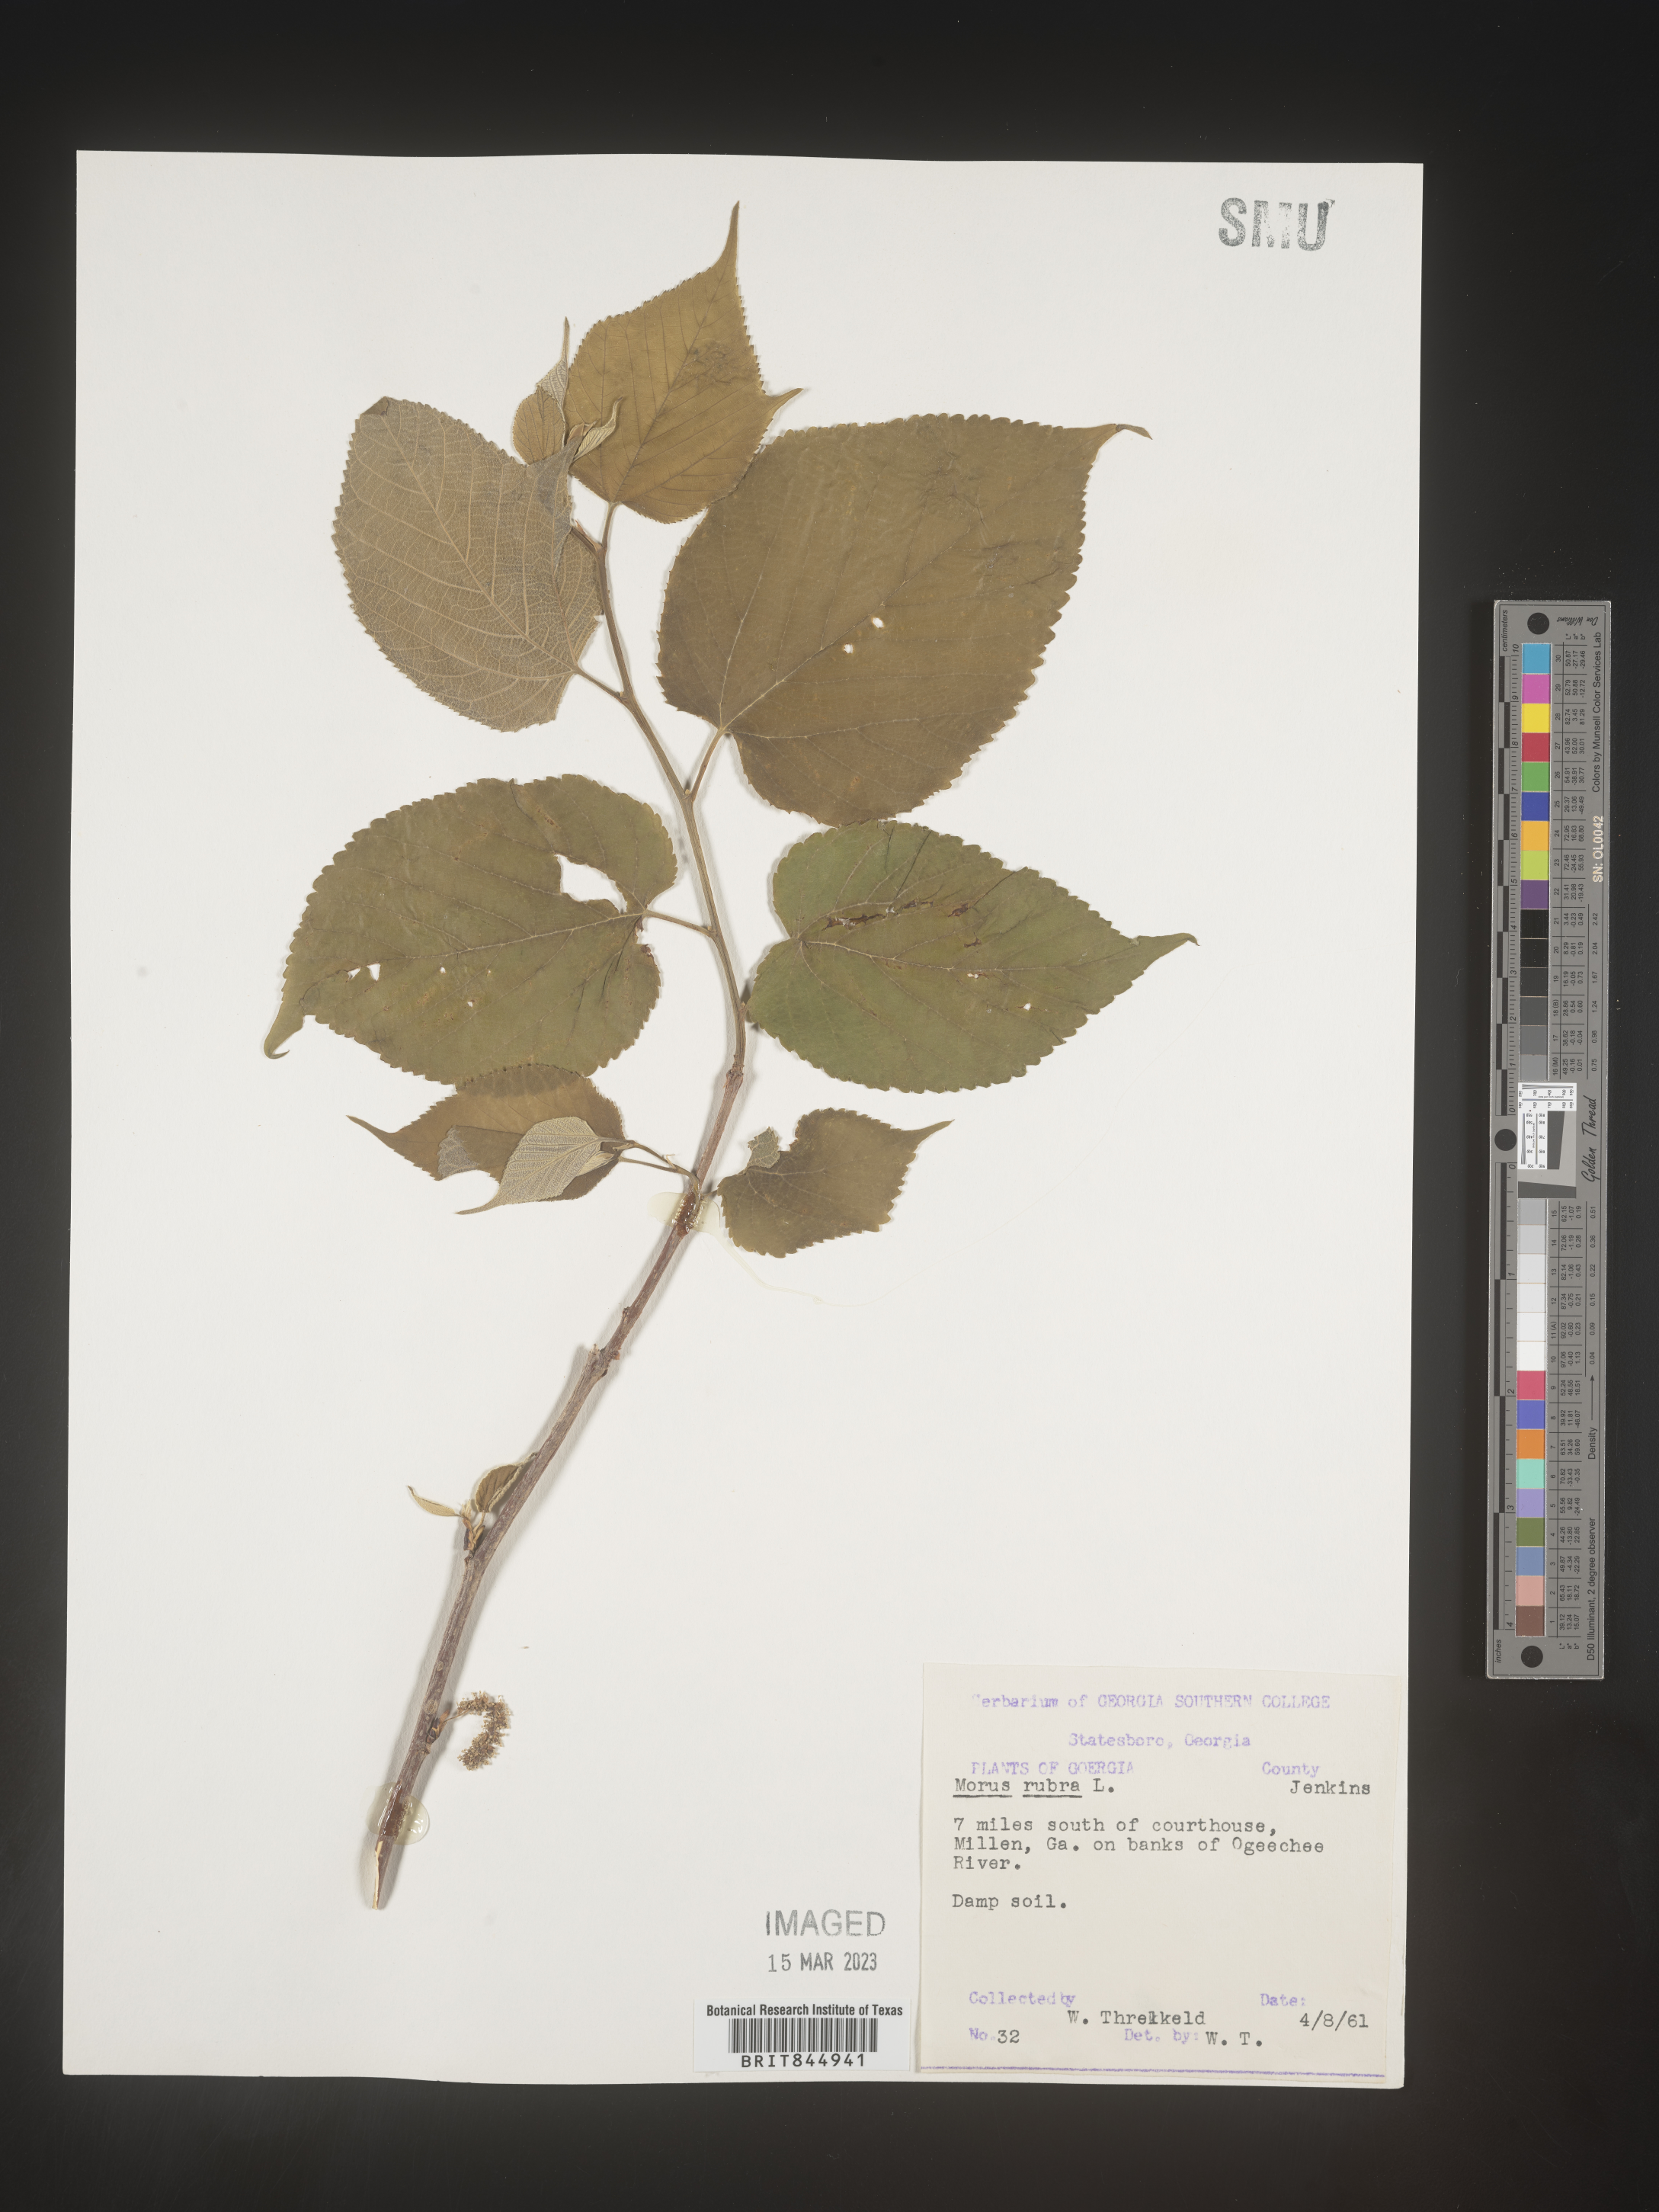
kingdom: Plantae
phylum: Tracheophyta
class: Magnoliopsida
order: Rosales
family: Moraceae
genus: Morus
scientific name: Morus rubra
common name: Red mulberry
